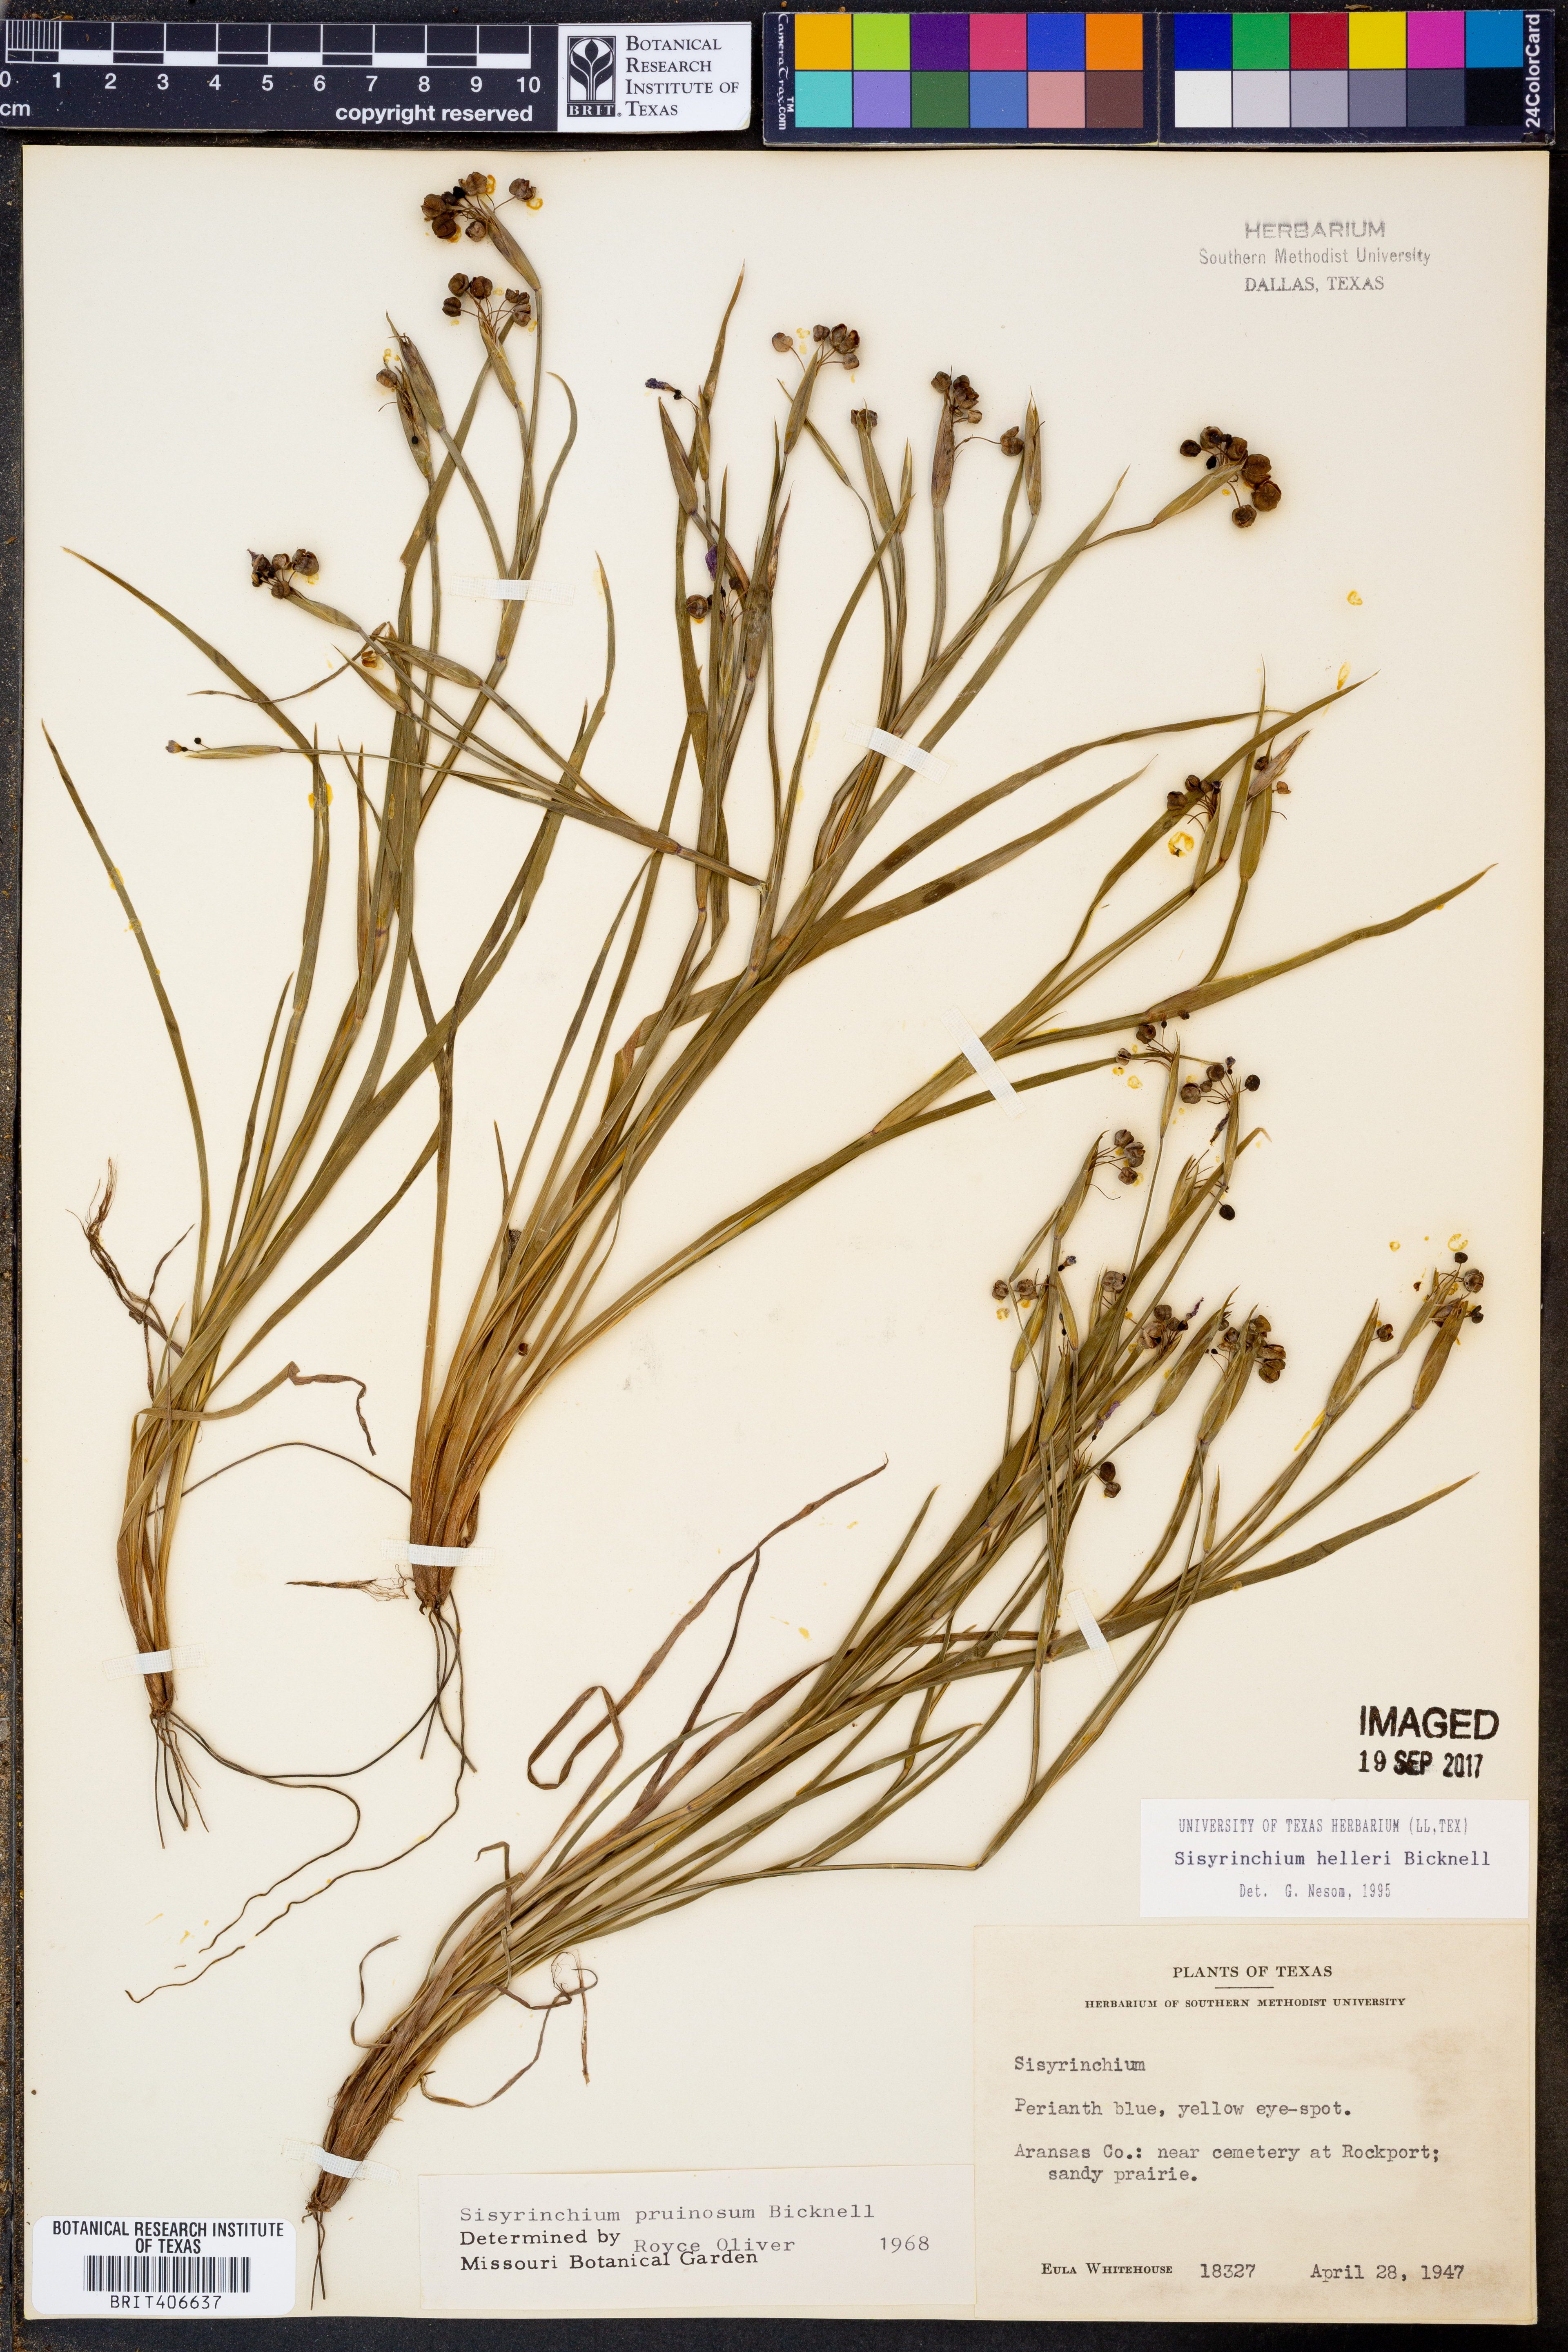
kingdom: Plantae
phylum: Tracheophyta
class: Liliopsida
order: Asparagales
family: Iridaceae
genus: Sisyrinchium
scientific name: Sisyrinchium pruinosum
